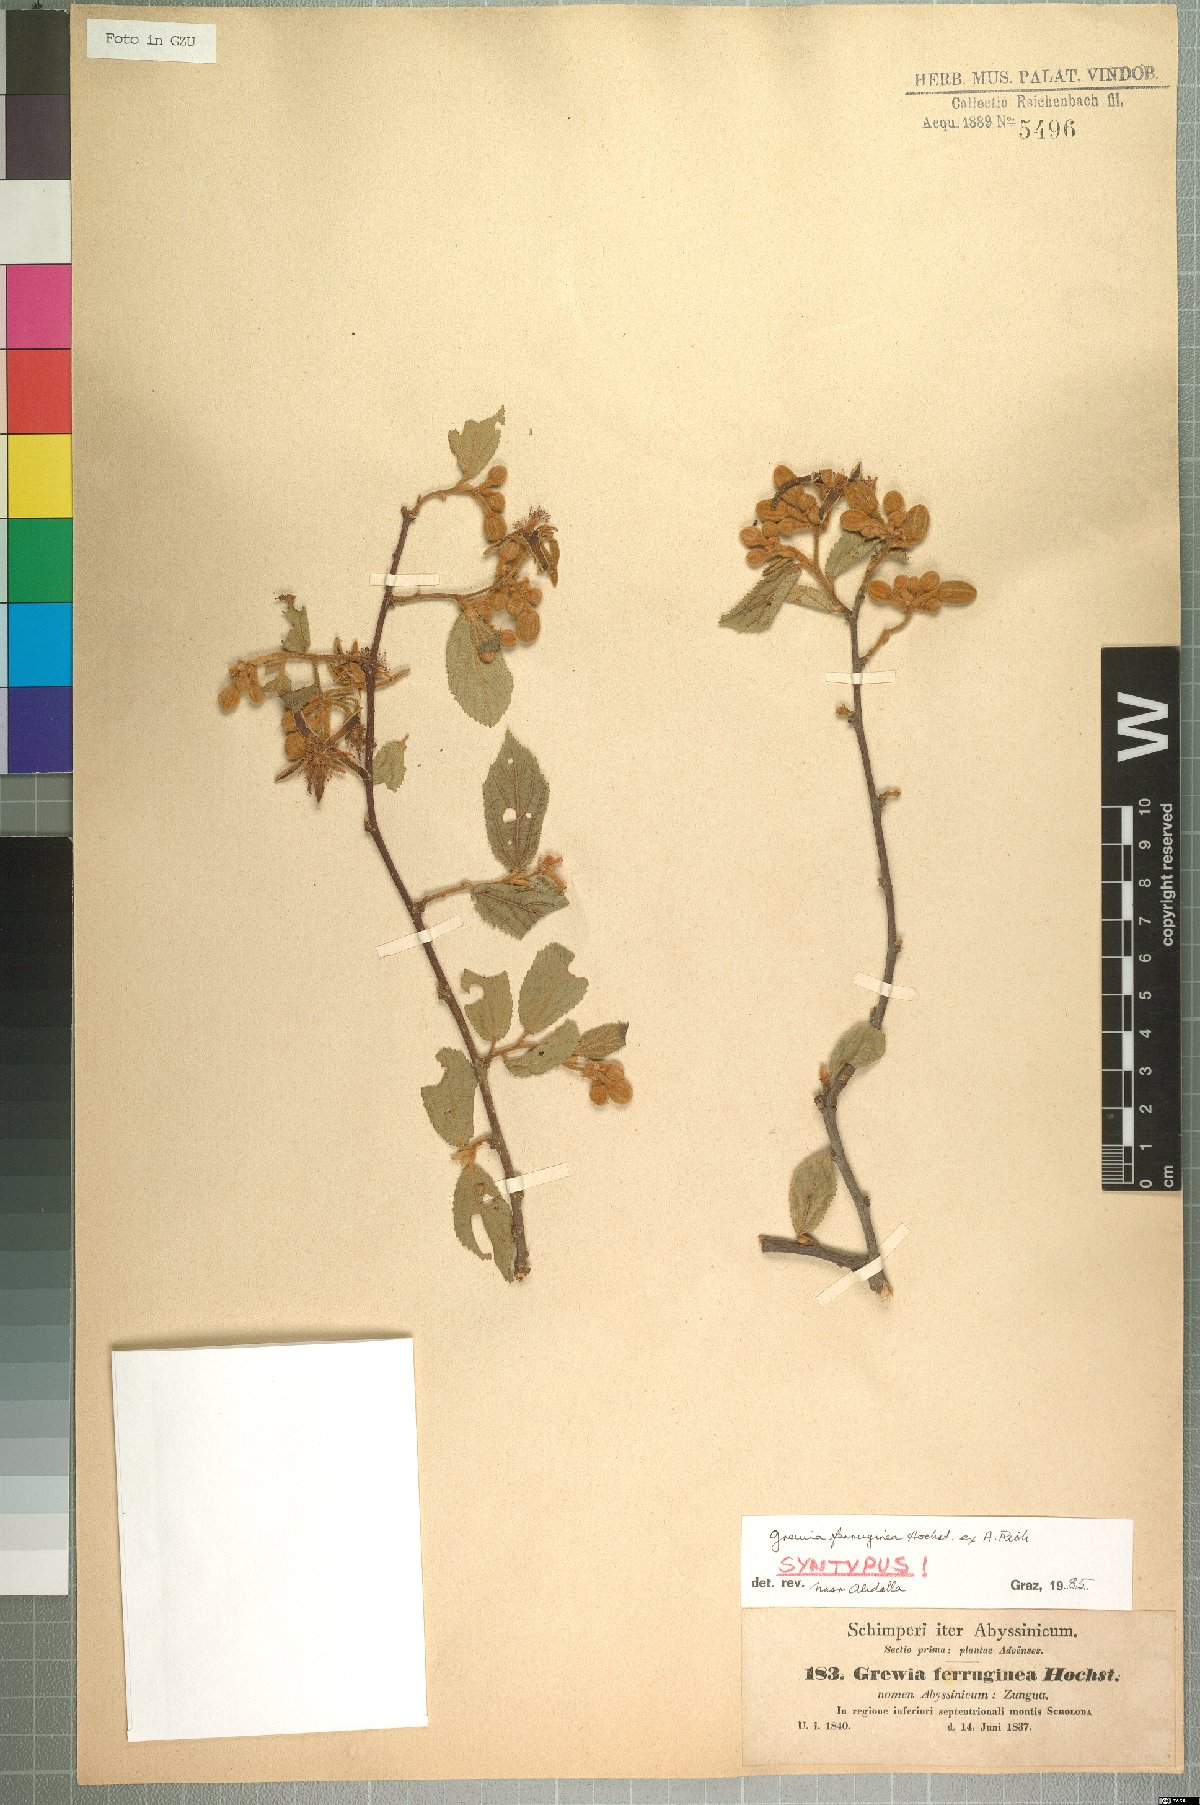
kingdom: Plantae
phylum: Tracheophyta
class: Magnoliopsida
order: Malvales
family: Malvaceae
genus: Grewia
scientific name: Grewia ferruginea
